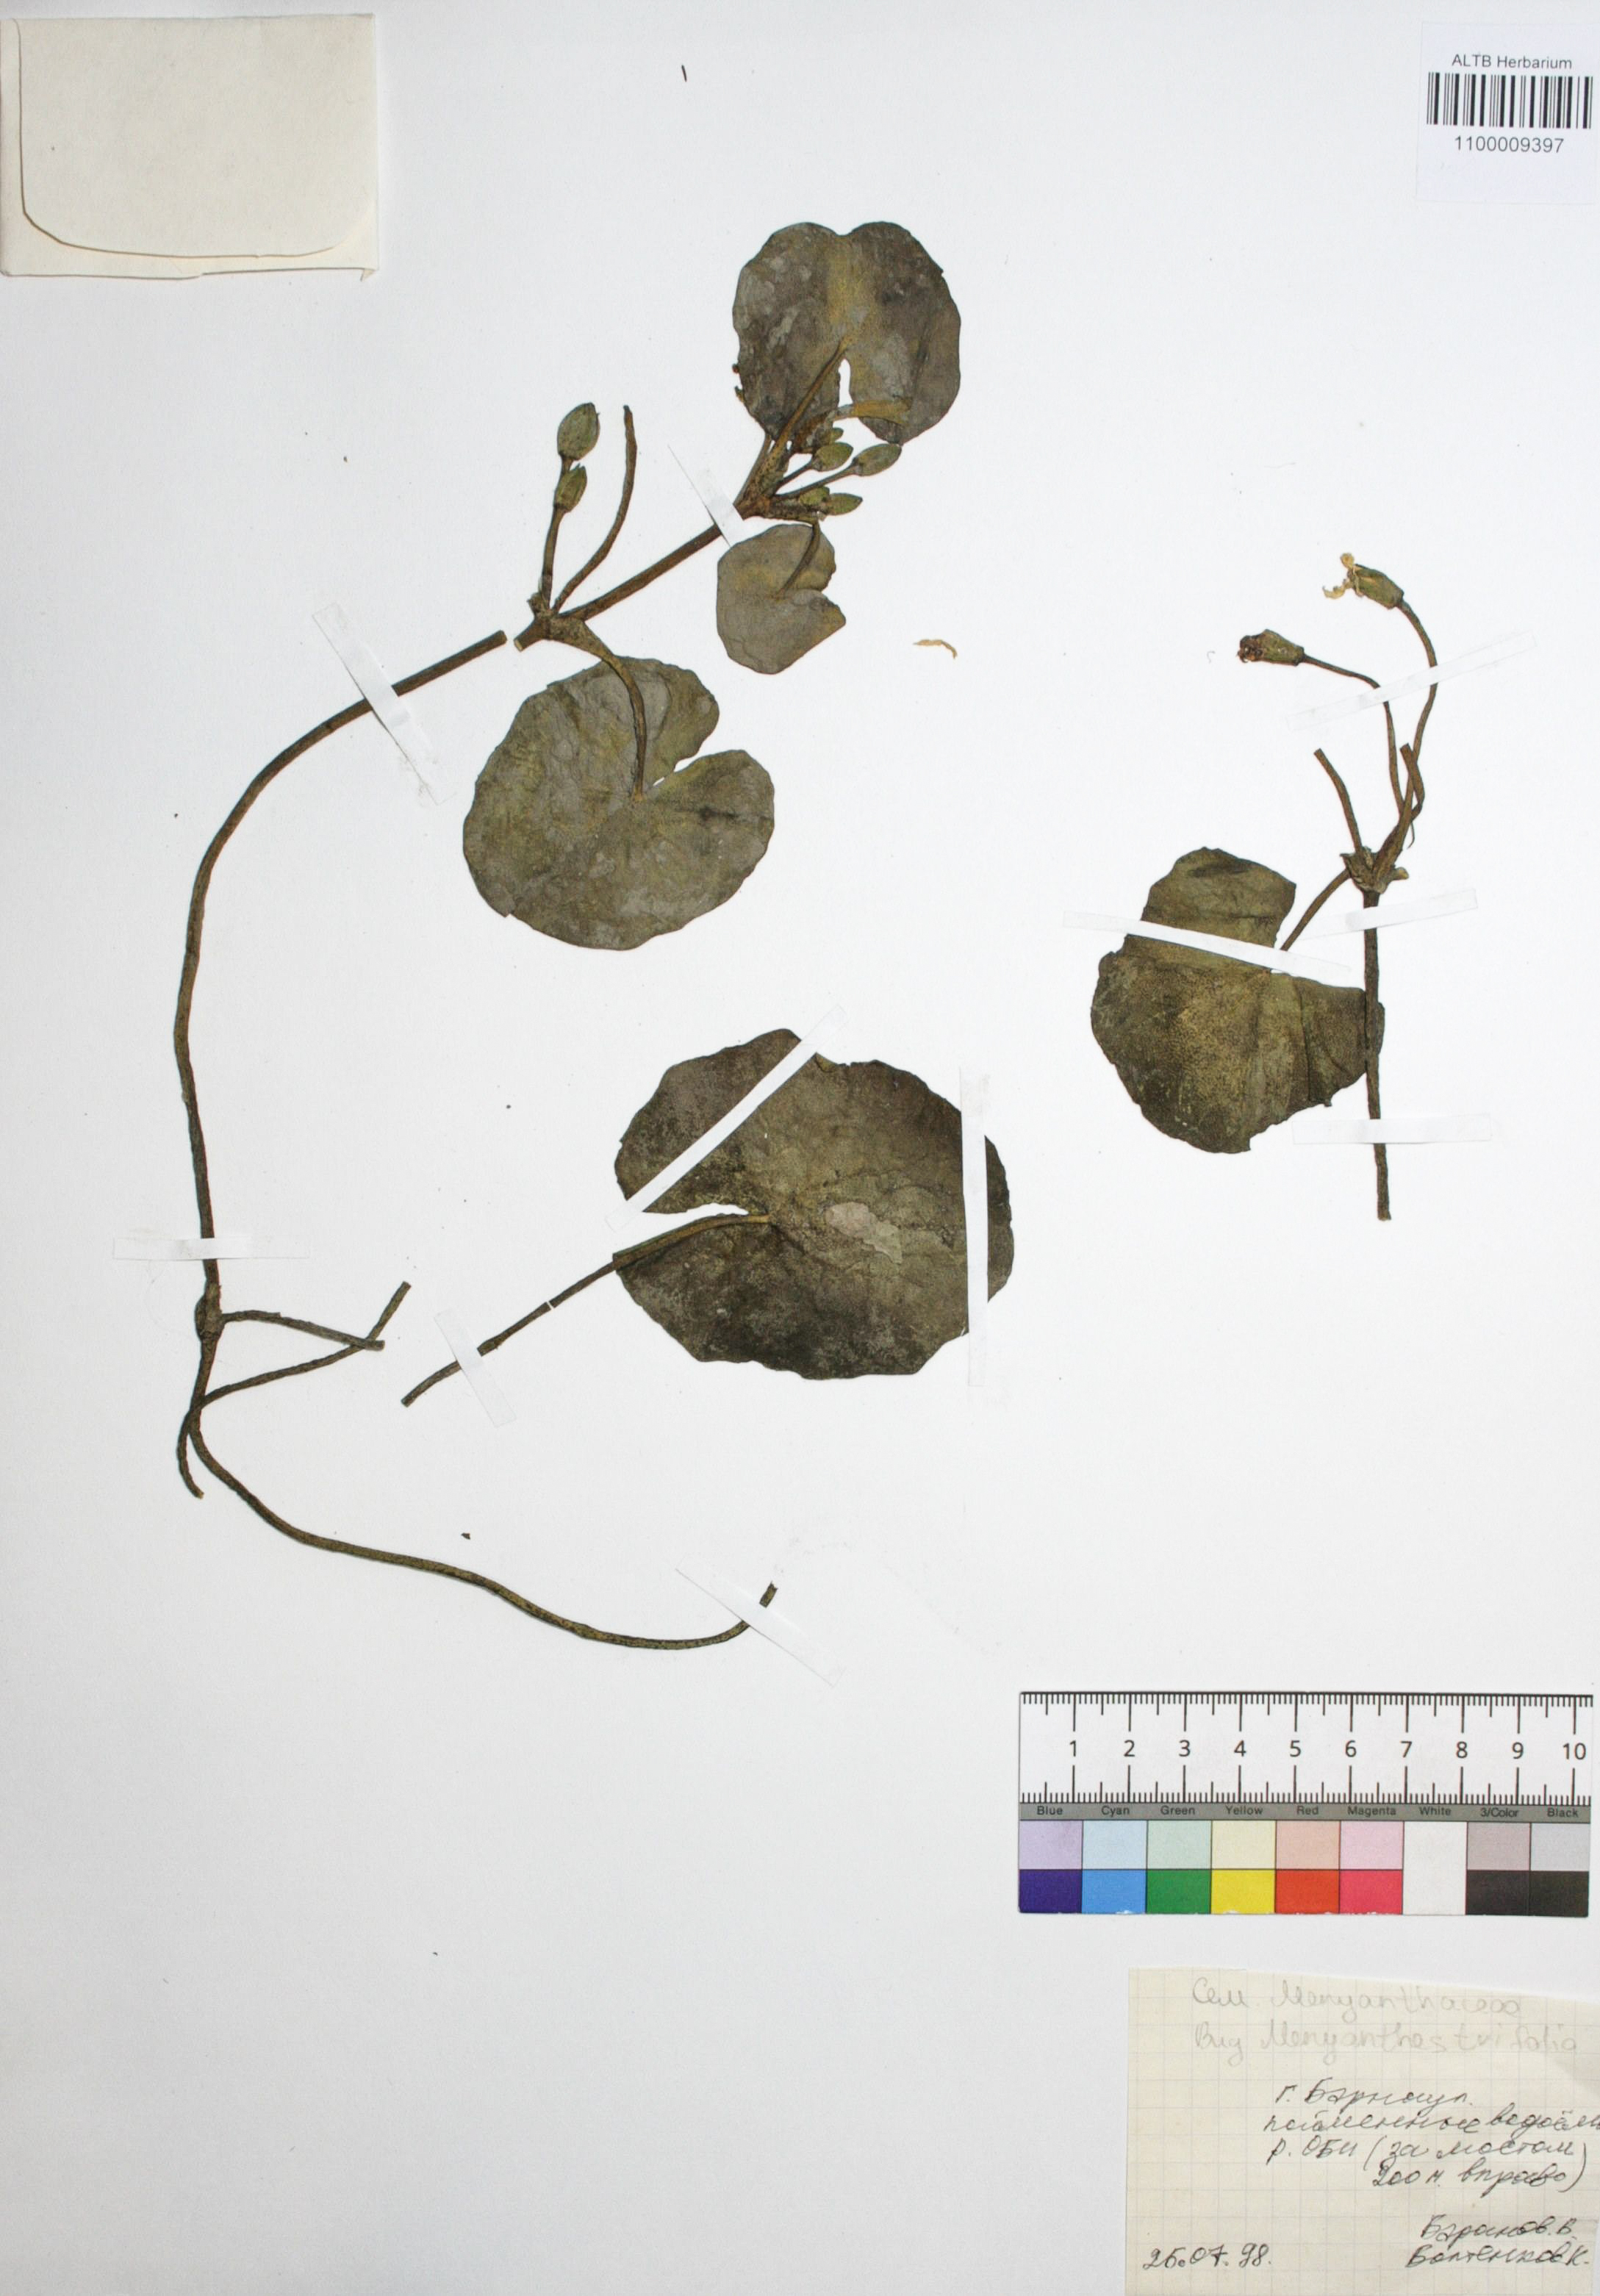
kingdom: Plantae
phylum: Tracheophyta
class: Magnoliopsida
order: Asterales
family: Menyanthaceae
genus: Menyanthes
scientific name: Menyanthes trifoliata
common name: Bogbean
